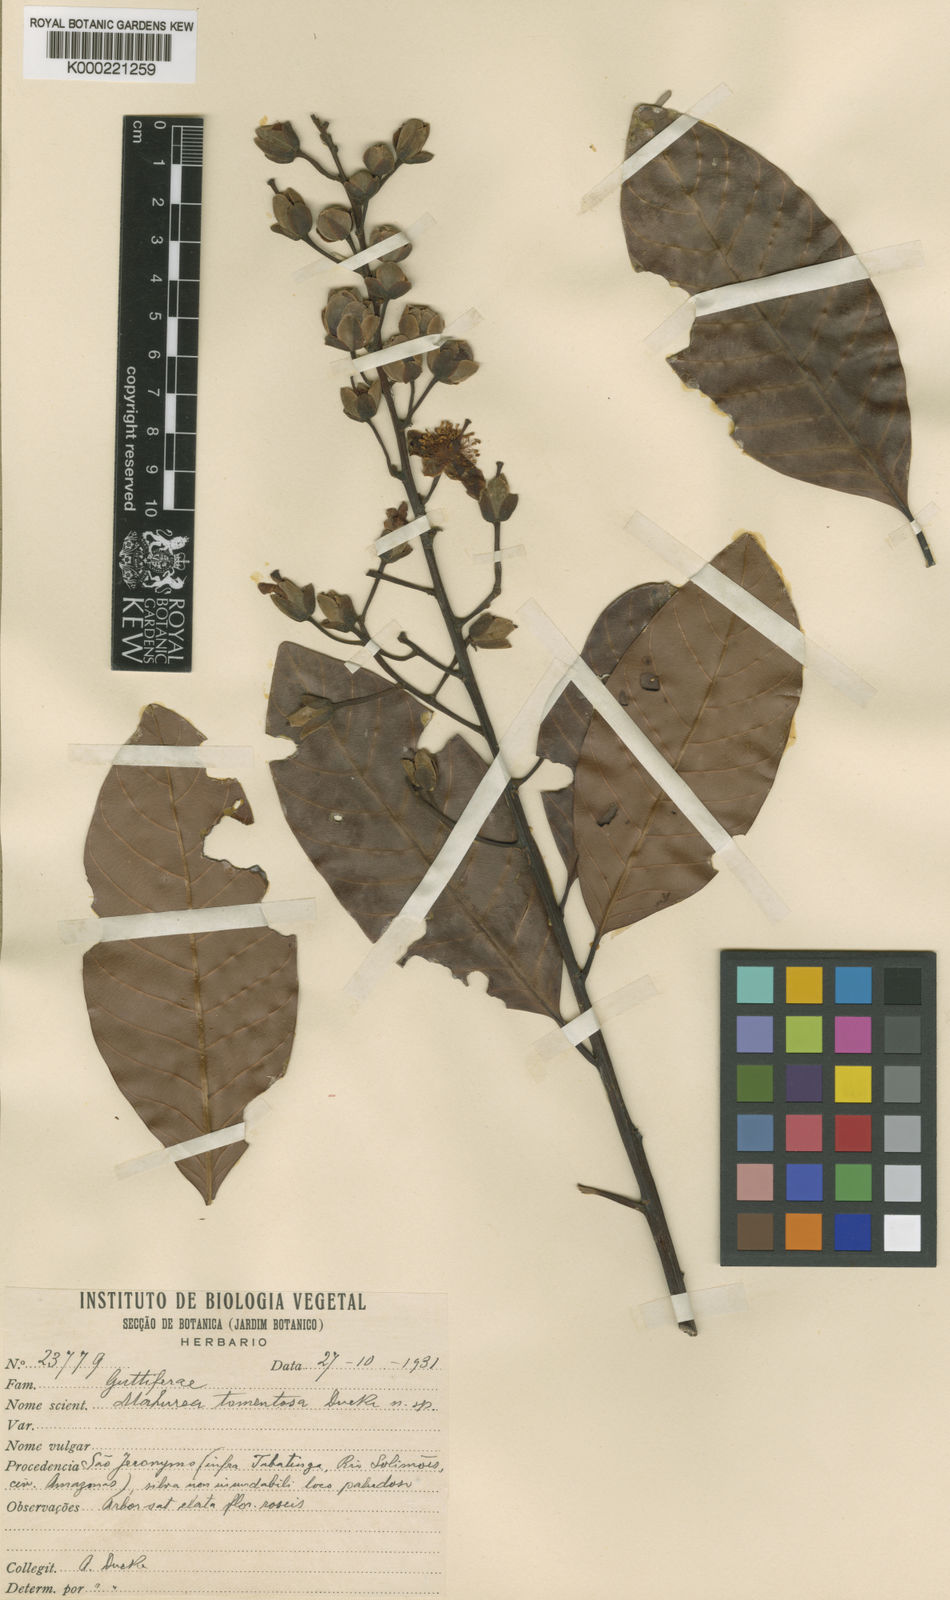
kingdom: Plantae
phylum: Tracheophyta
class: Magnoliopsida
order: Malpighiales
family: Calophyllaceae
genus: Mahurea
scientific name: Mahurea exstipulata
